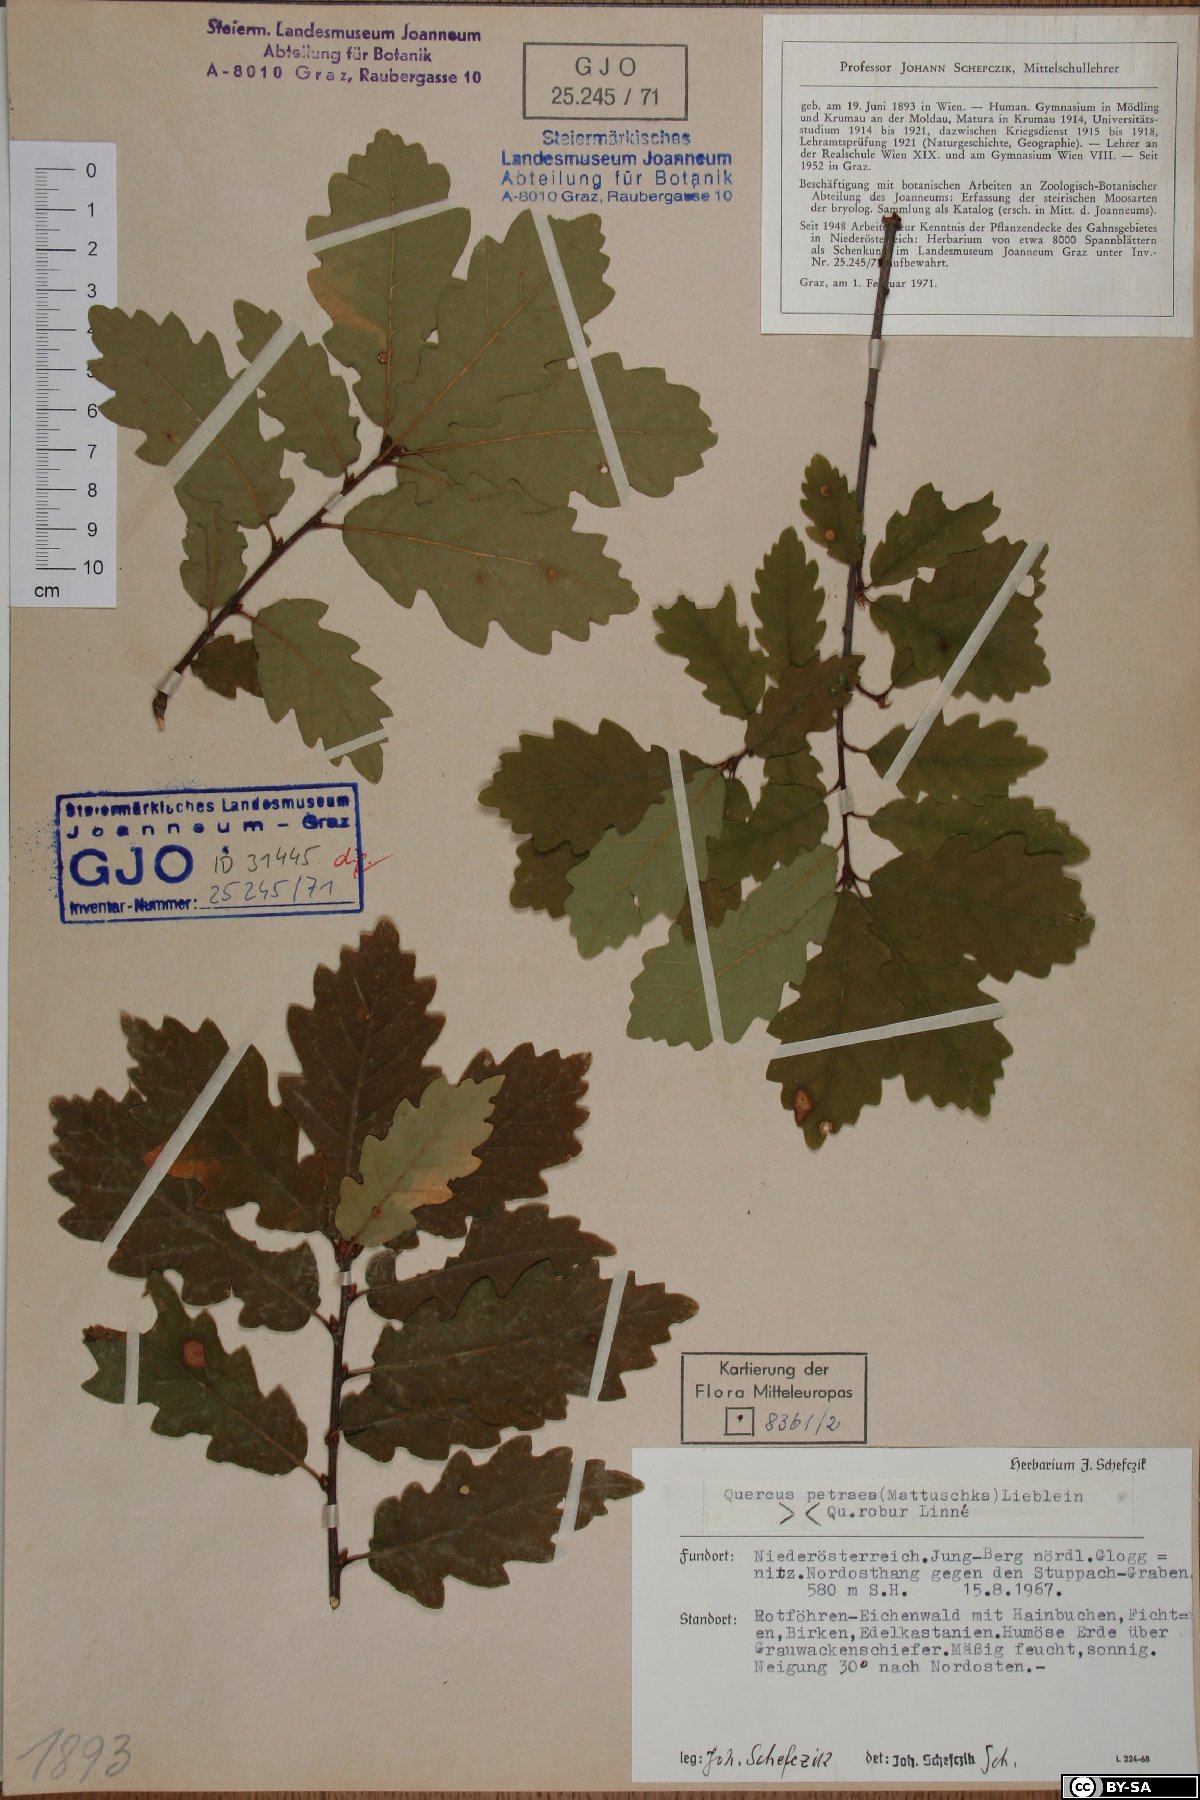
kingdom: Plantae
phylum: Tracheophyta
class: Magnoliopsida
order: Fagales
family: Fagaceae
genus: Quercus
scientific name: Quercus petraea
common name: Sessile oak
